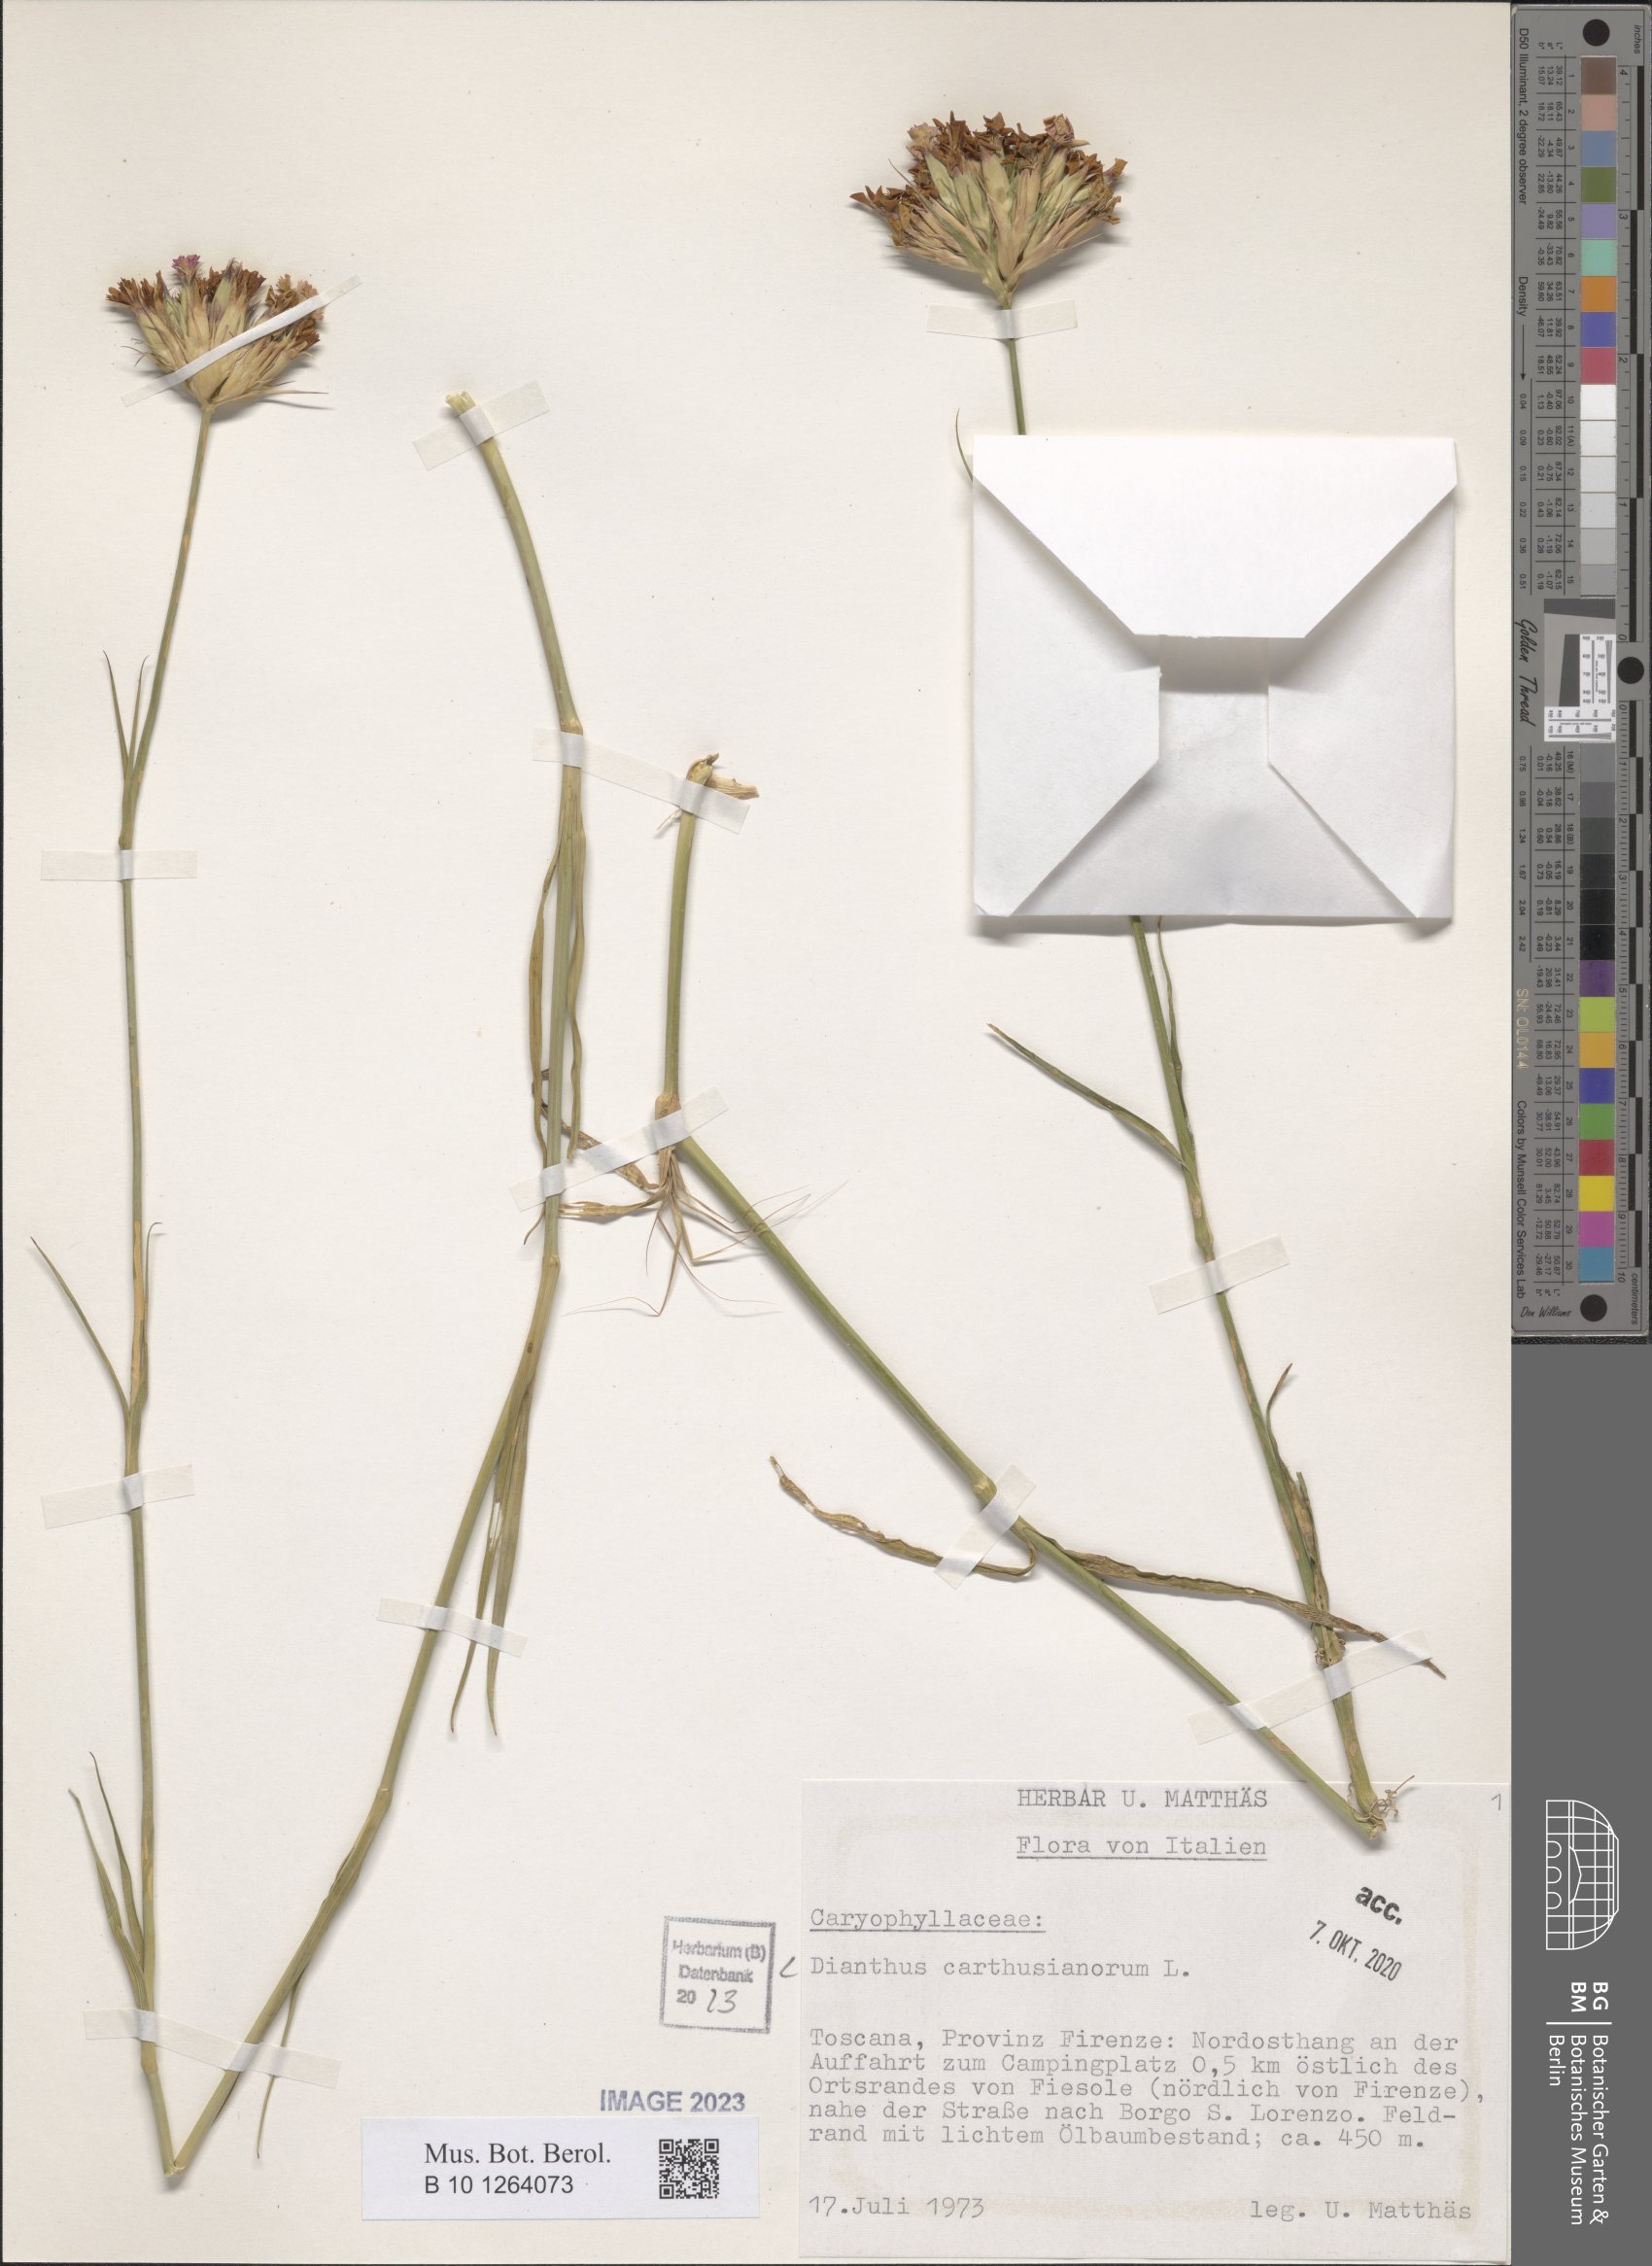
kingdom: Plantae
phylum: Tracheophyta
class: Magnoliopsida
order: Caryophyllales
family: Caryophyllaceae
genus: Dianthus
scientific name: Dianthus carthusianorum
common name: Carthusian pink
